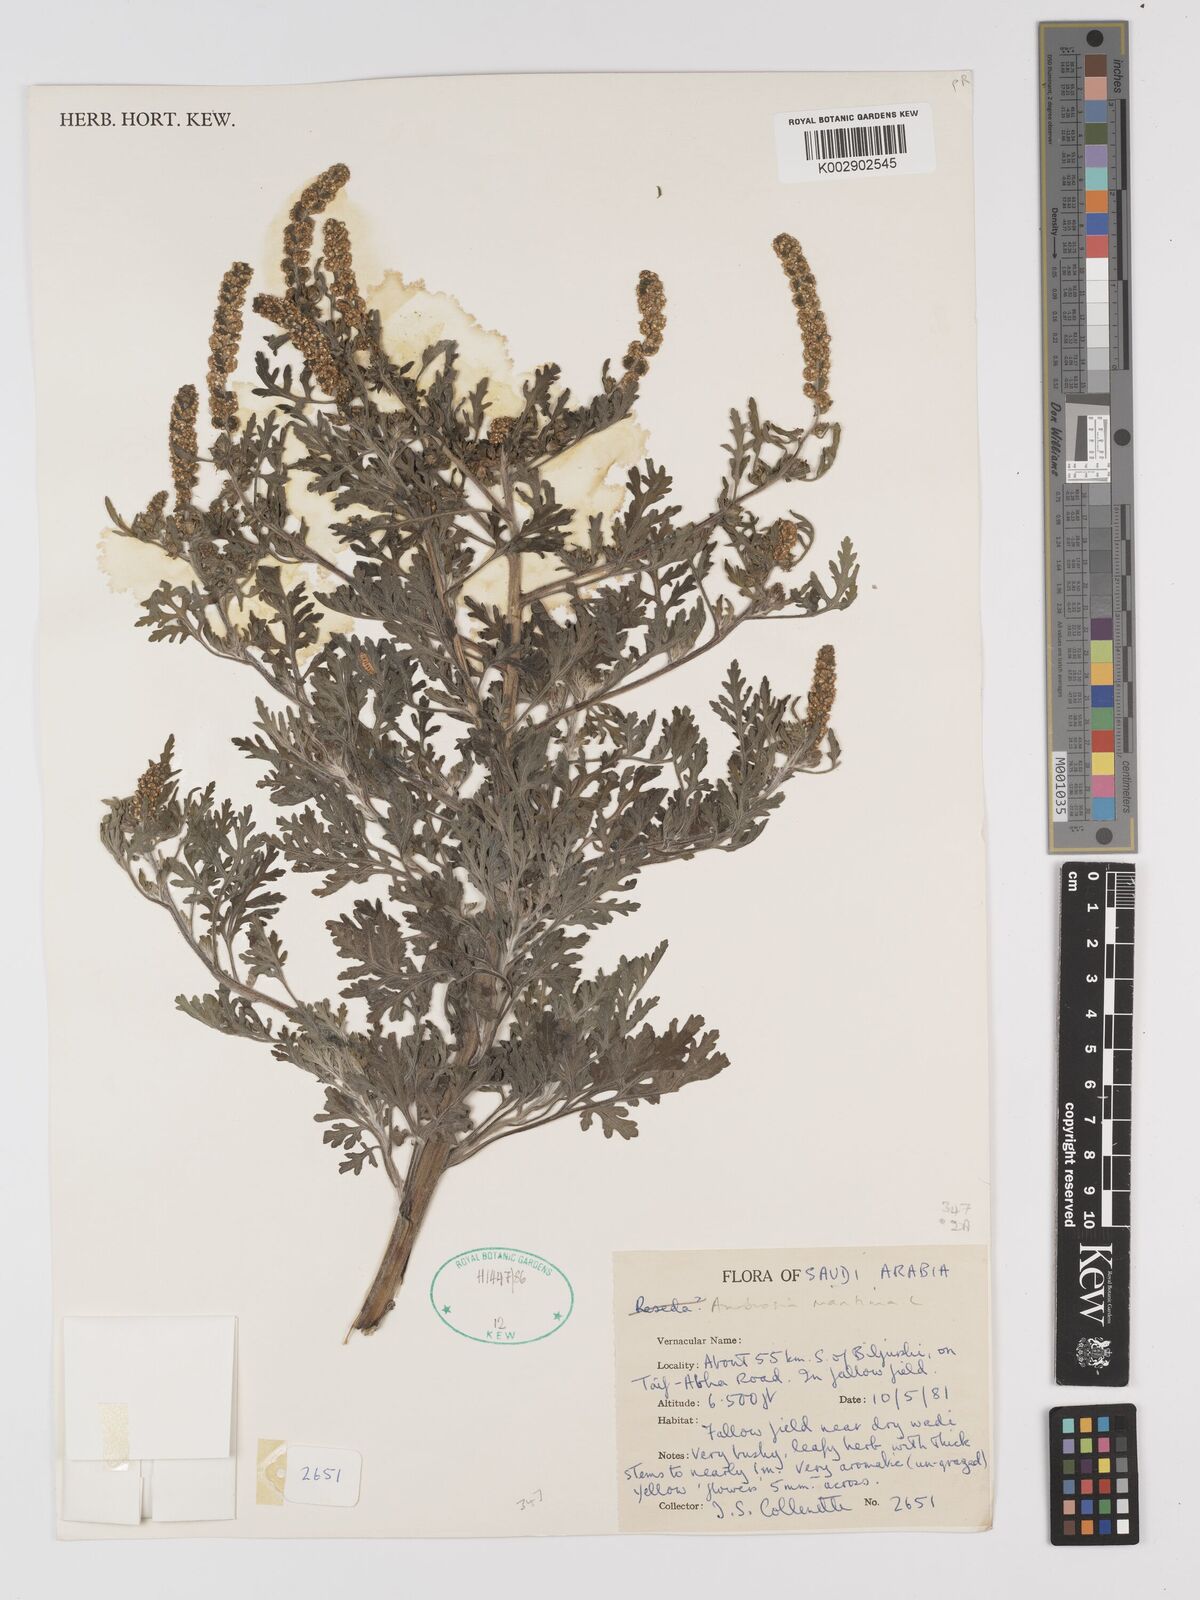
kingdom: Plantae
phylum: Tracheophyta
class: Magnoliopsida
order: Asterales
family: Asteraceae
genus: Ambrosia
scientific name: Ambrosia maritima
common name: Sea ambrosia
